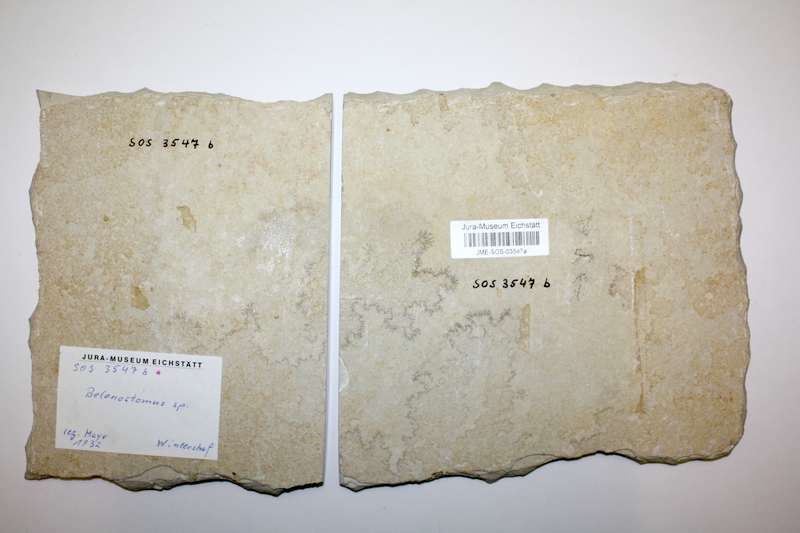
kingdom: Animalia
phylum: Chordata
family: Aspidorhynchidae
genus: Belonostomus
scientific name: Belonostomus
